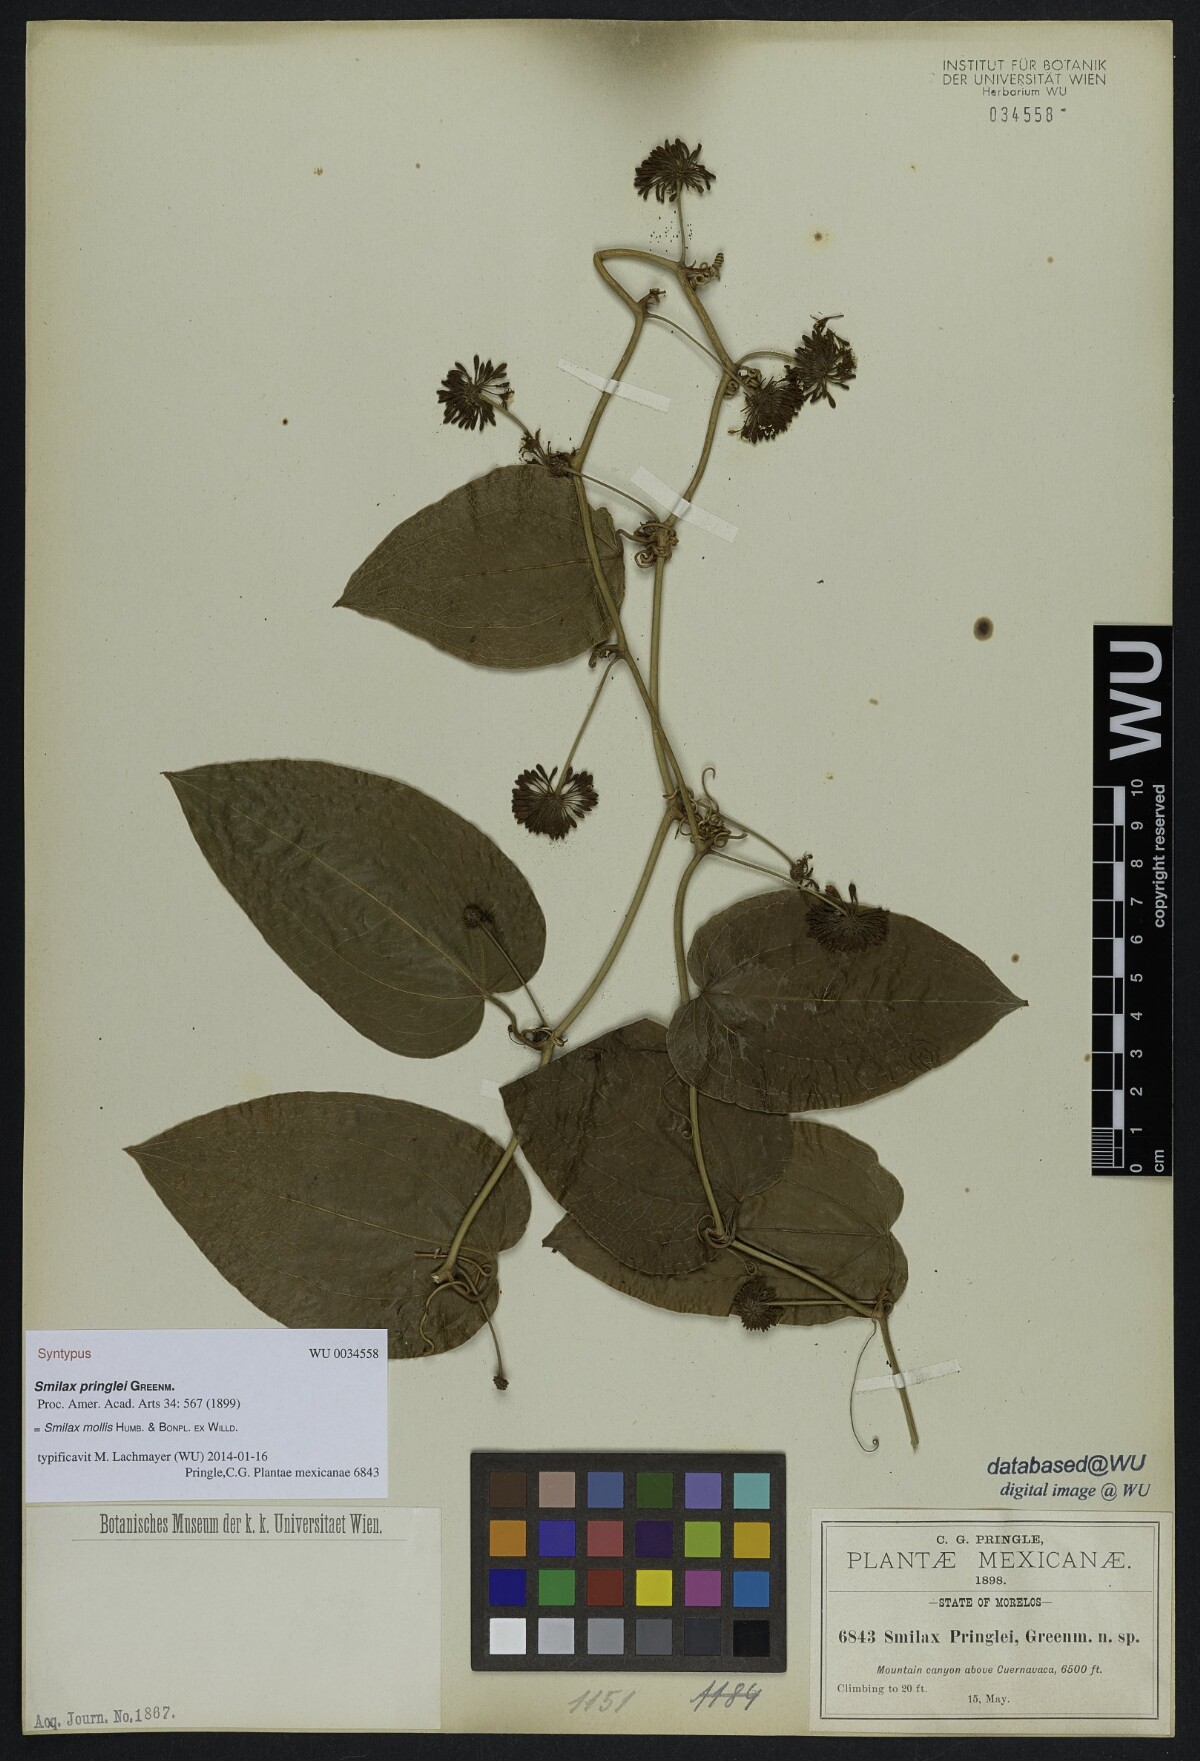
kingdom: Plantae
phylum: Tracheophyta
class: Liliopsida
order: Liliales
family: Smilacaceae
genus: Smilax
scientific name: Smilax mollis
